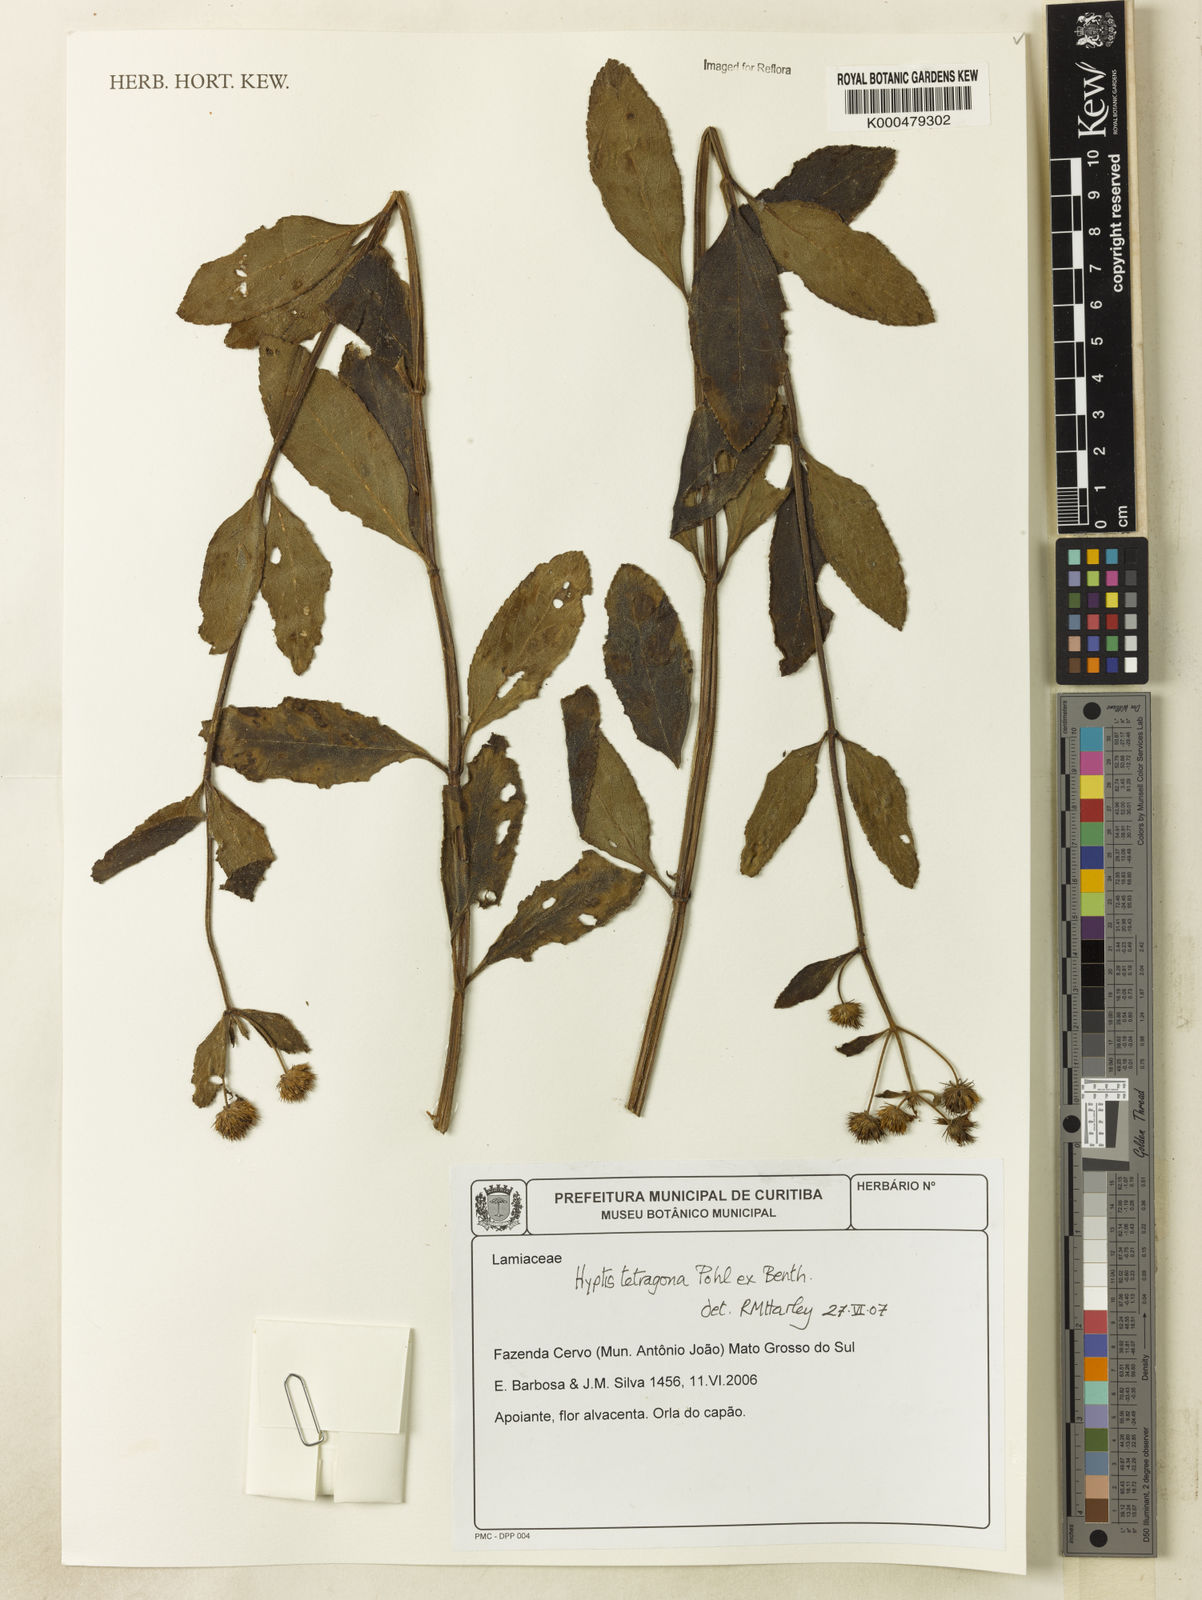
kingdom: Plantae
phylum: Tracheophyta
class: Magnoliopsida
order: Lamiales
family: Lamiaceae
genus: Hyptis
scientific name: Hyptis tetragona
